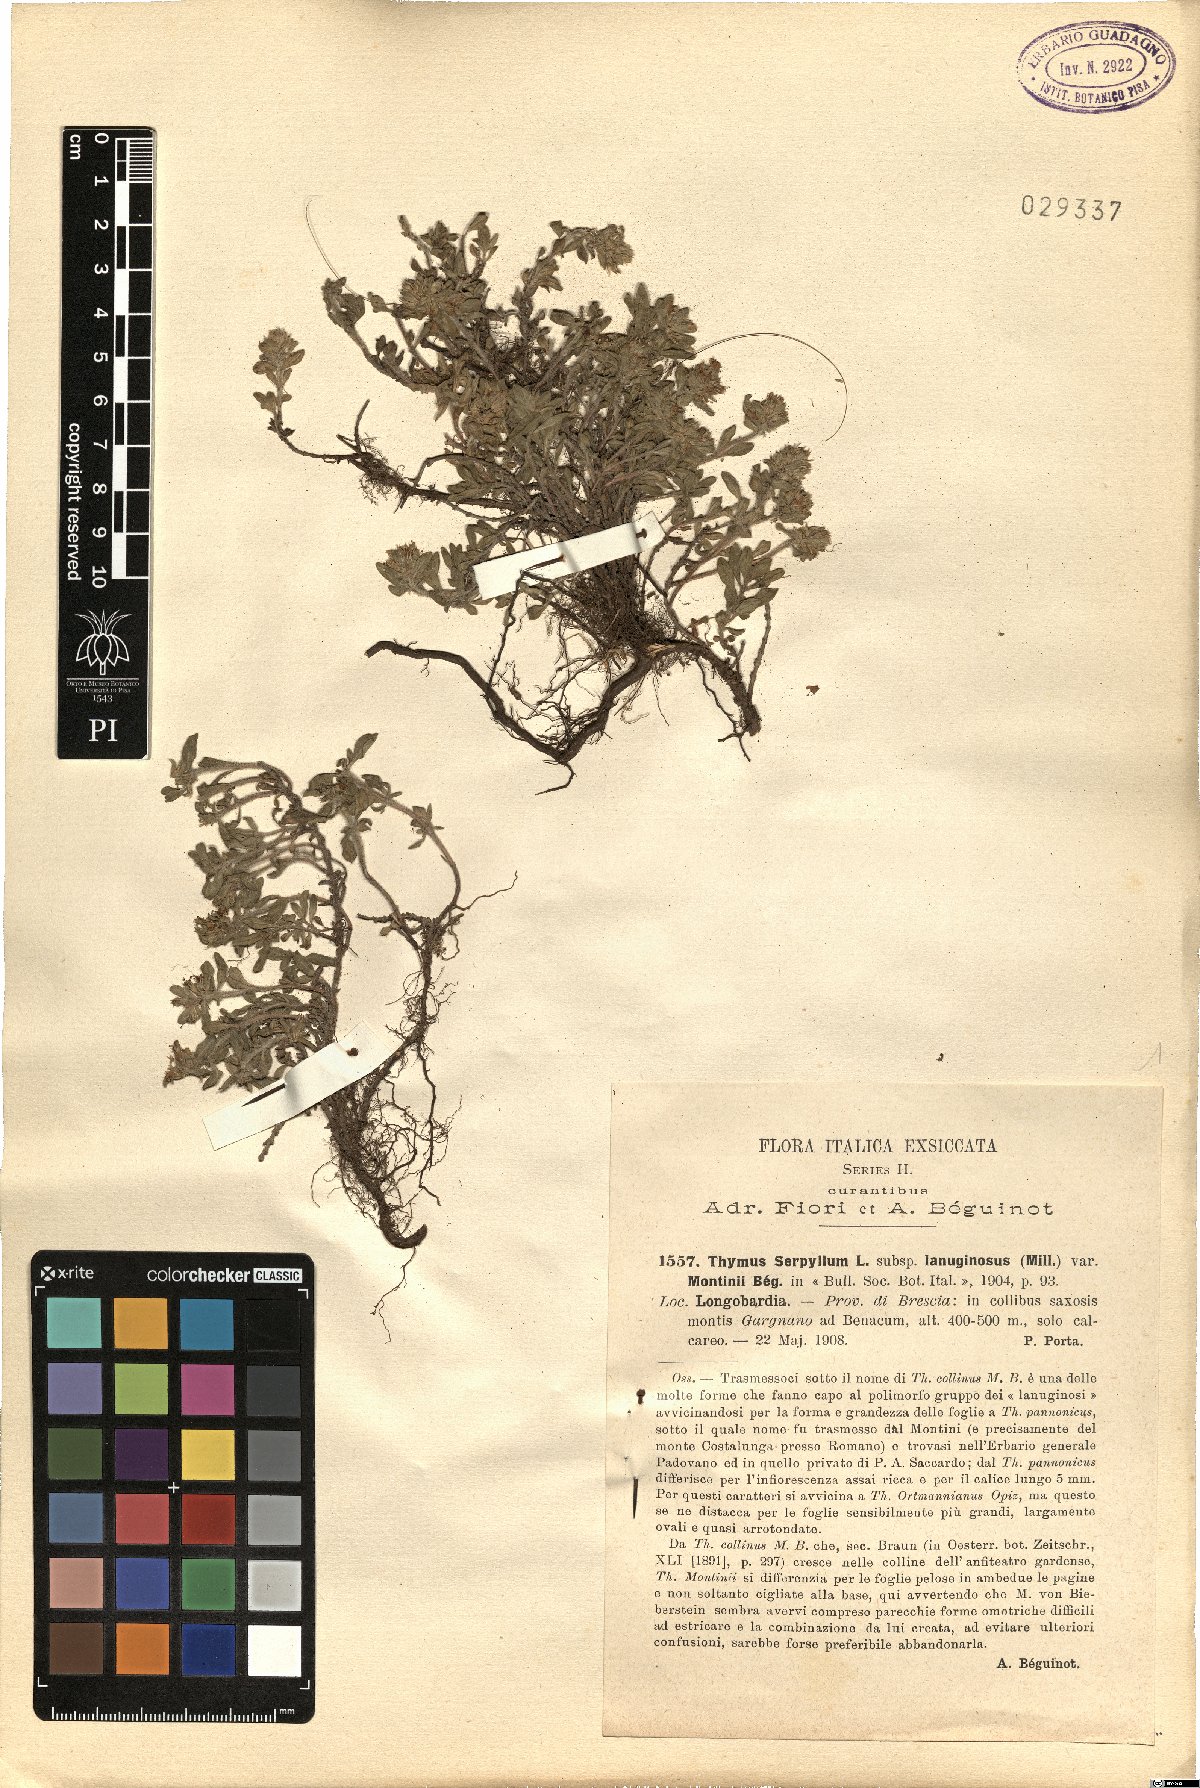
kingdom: Plantae
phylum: Tracheophyta
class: Magnoliopsida
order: Lamiales
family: Lamiaceae
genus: Thymus
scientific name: Thymus pulegioides
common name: Large thyme
